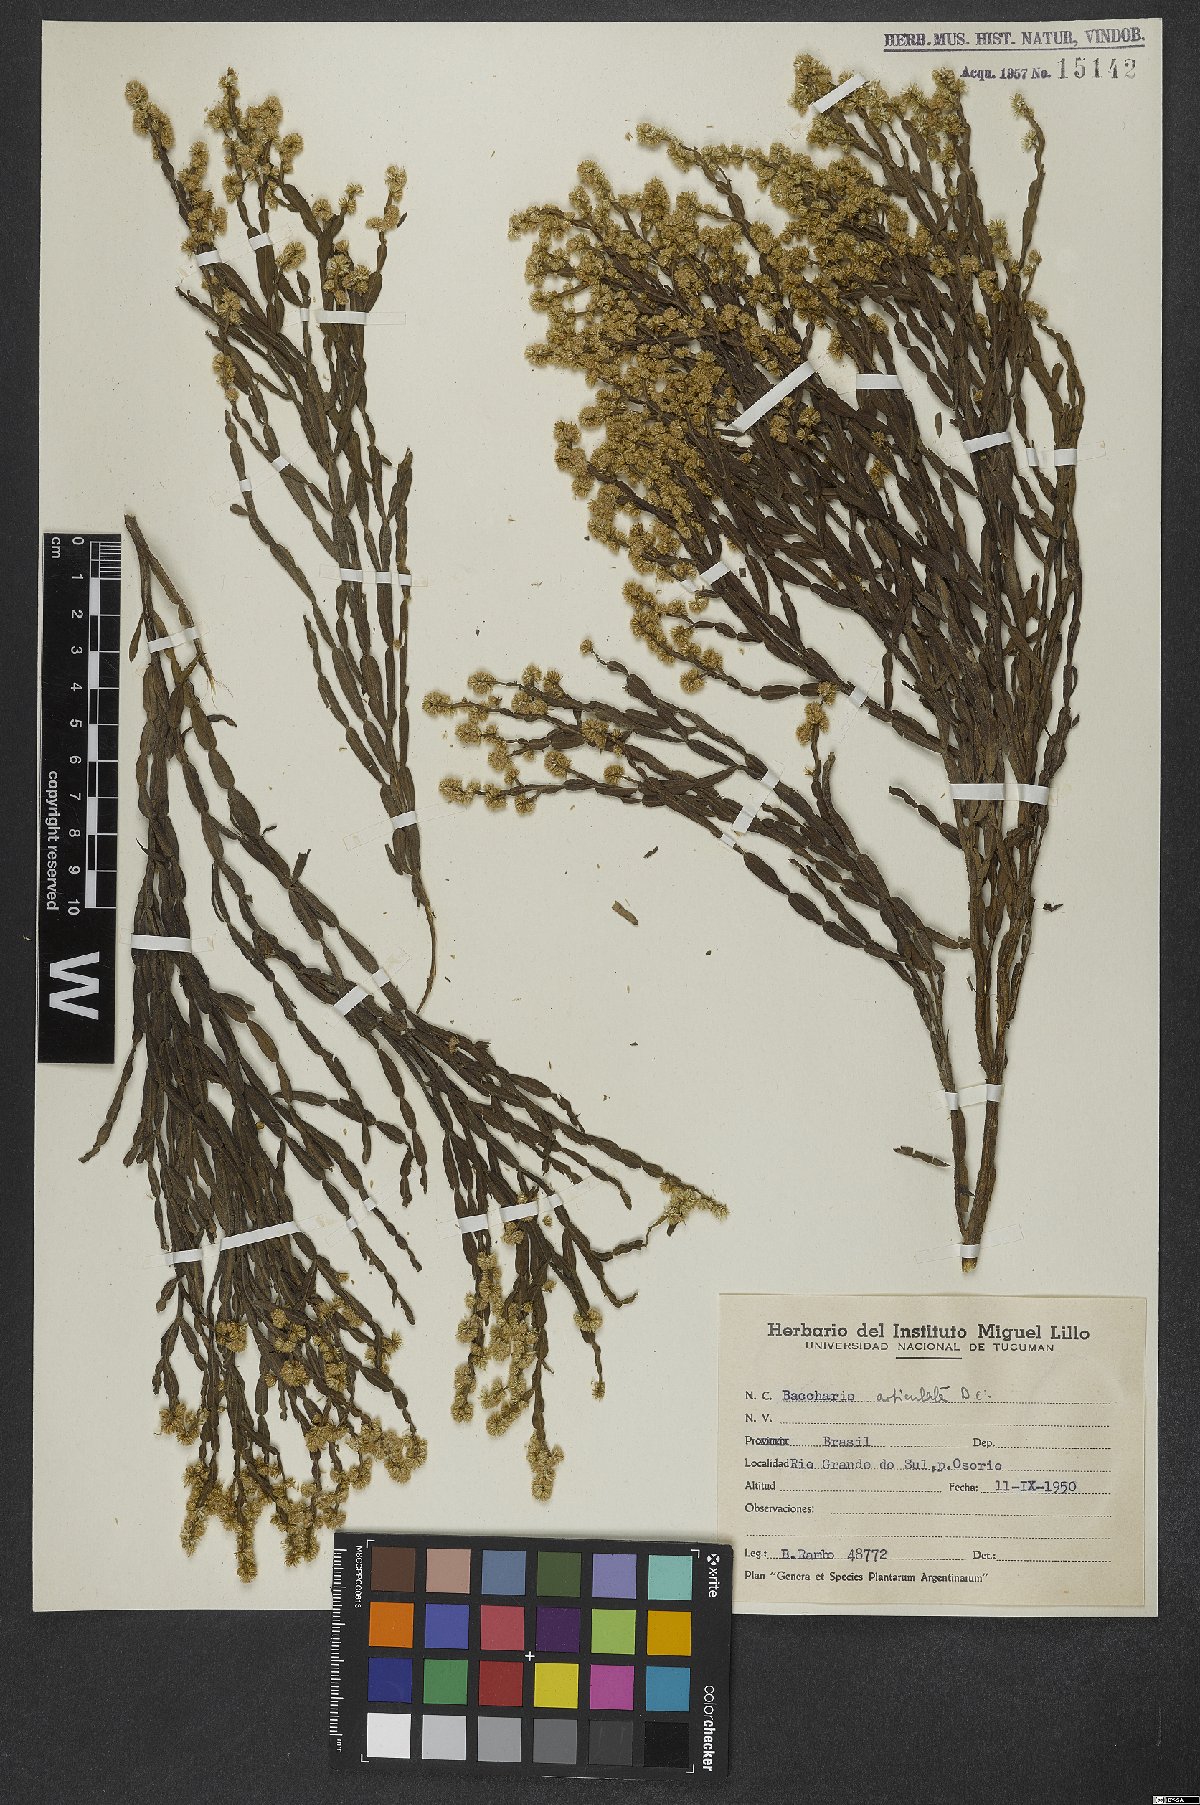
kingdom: Plantae
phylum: Tracheophyta
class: Magnoliopsida
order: Asterales
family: Asteraceae
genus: Baccharis
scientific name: Baccharis articulata
